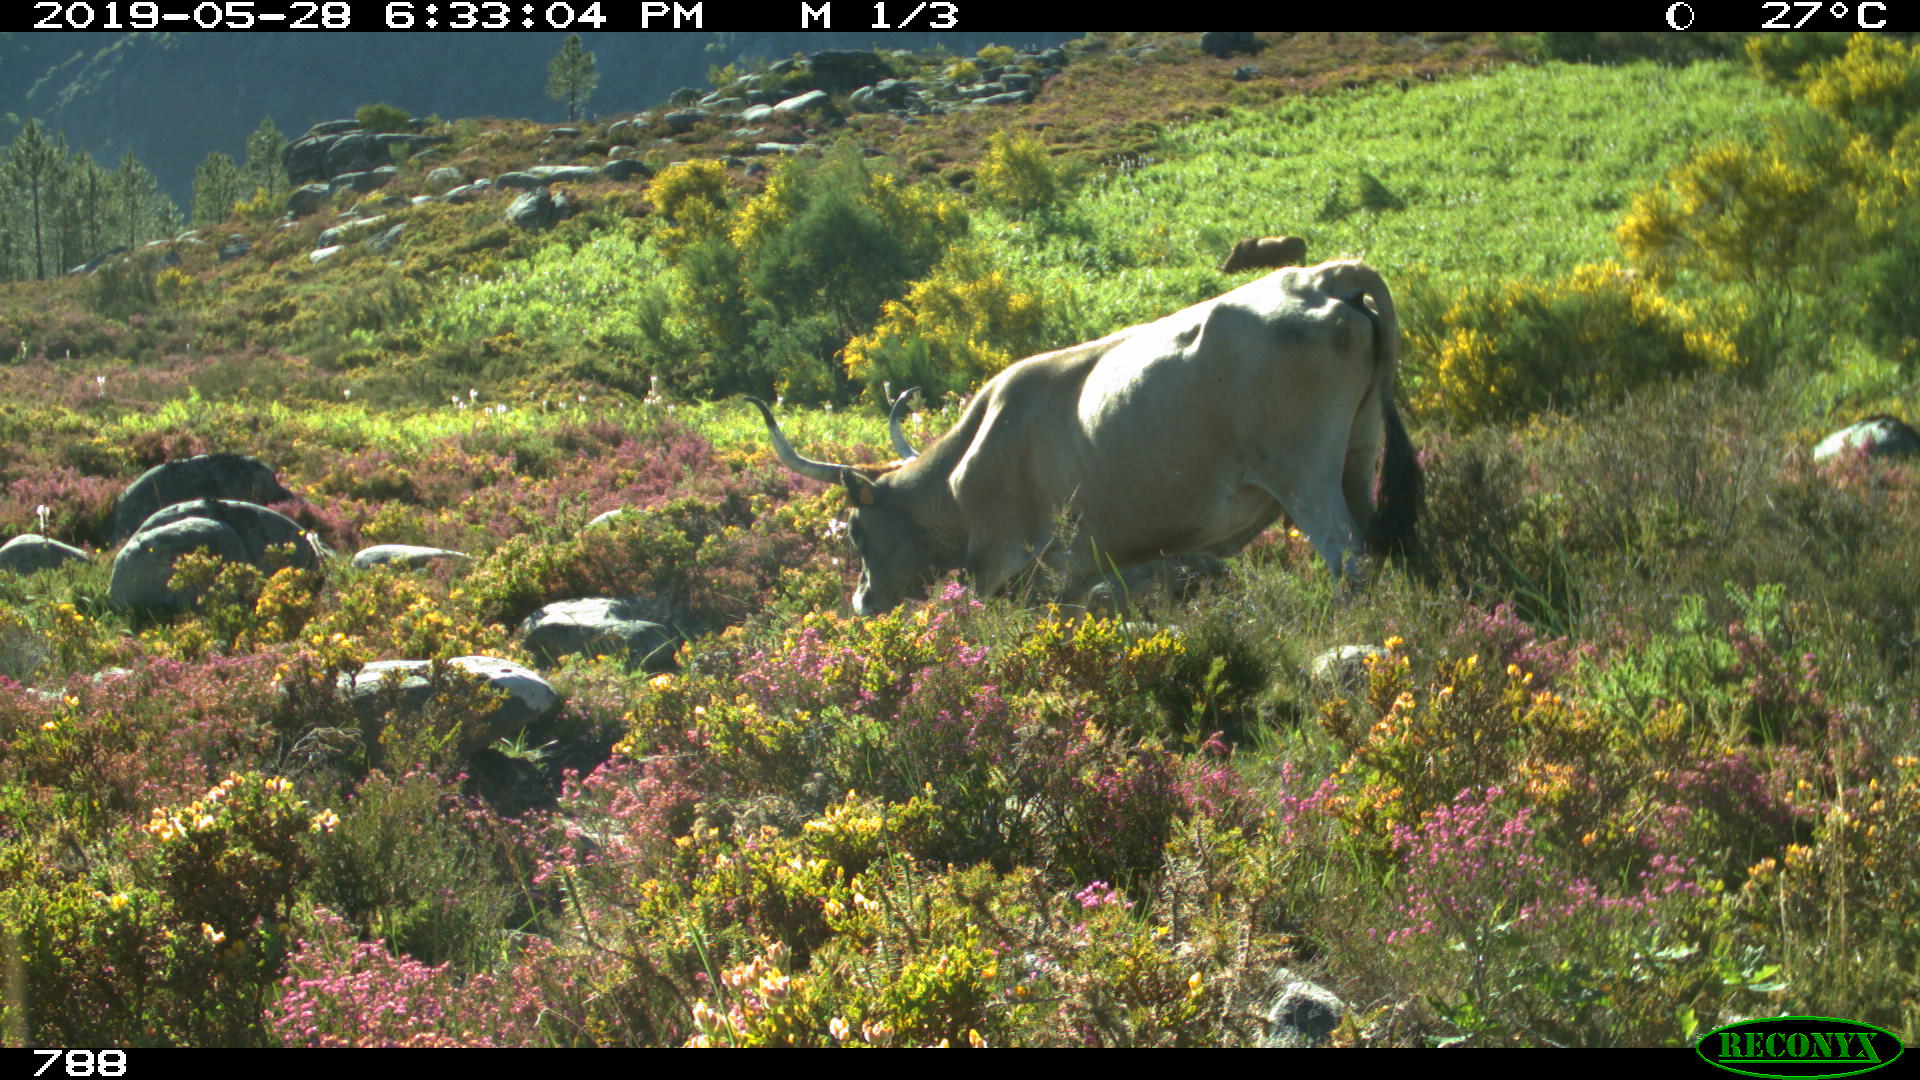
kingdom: Animalia
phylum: Chordata
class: Mammalia
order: Artiodactyla
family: Bovidae
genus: Bos
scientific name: Bos taurus
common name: Domesticated cattle
